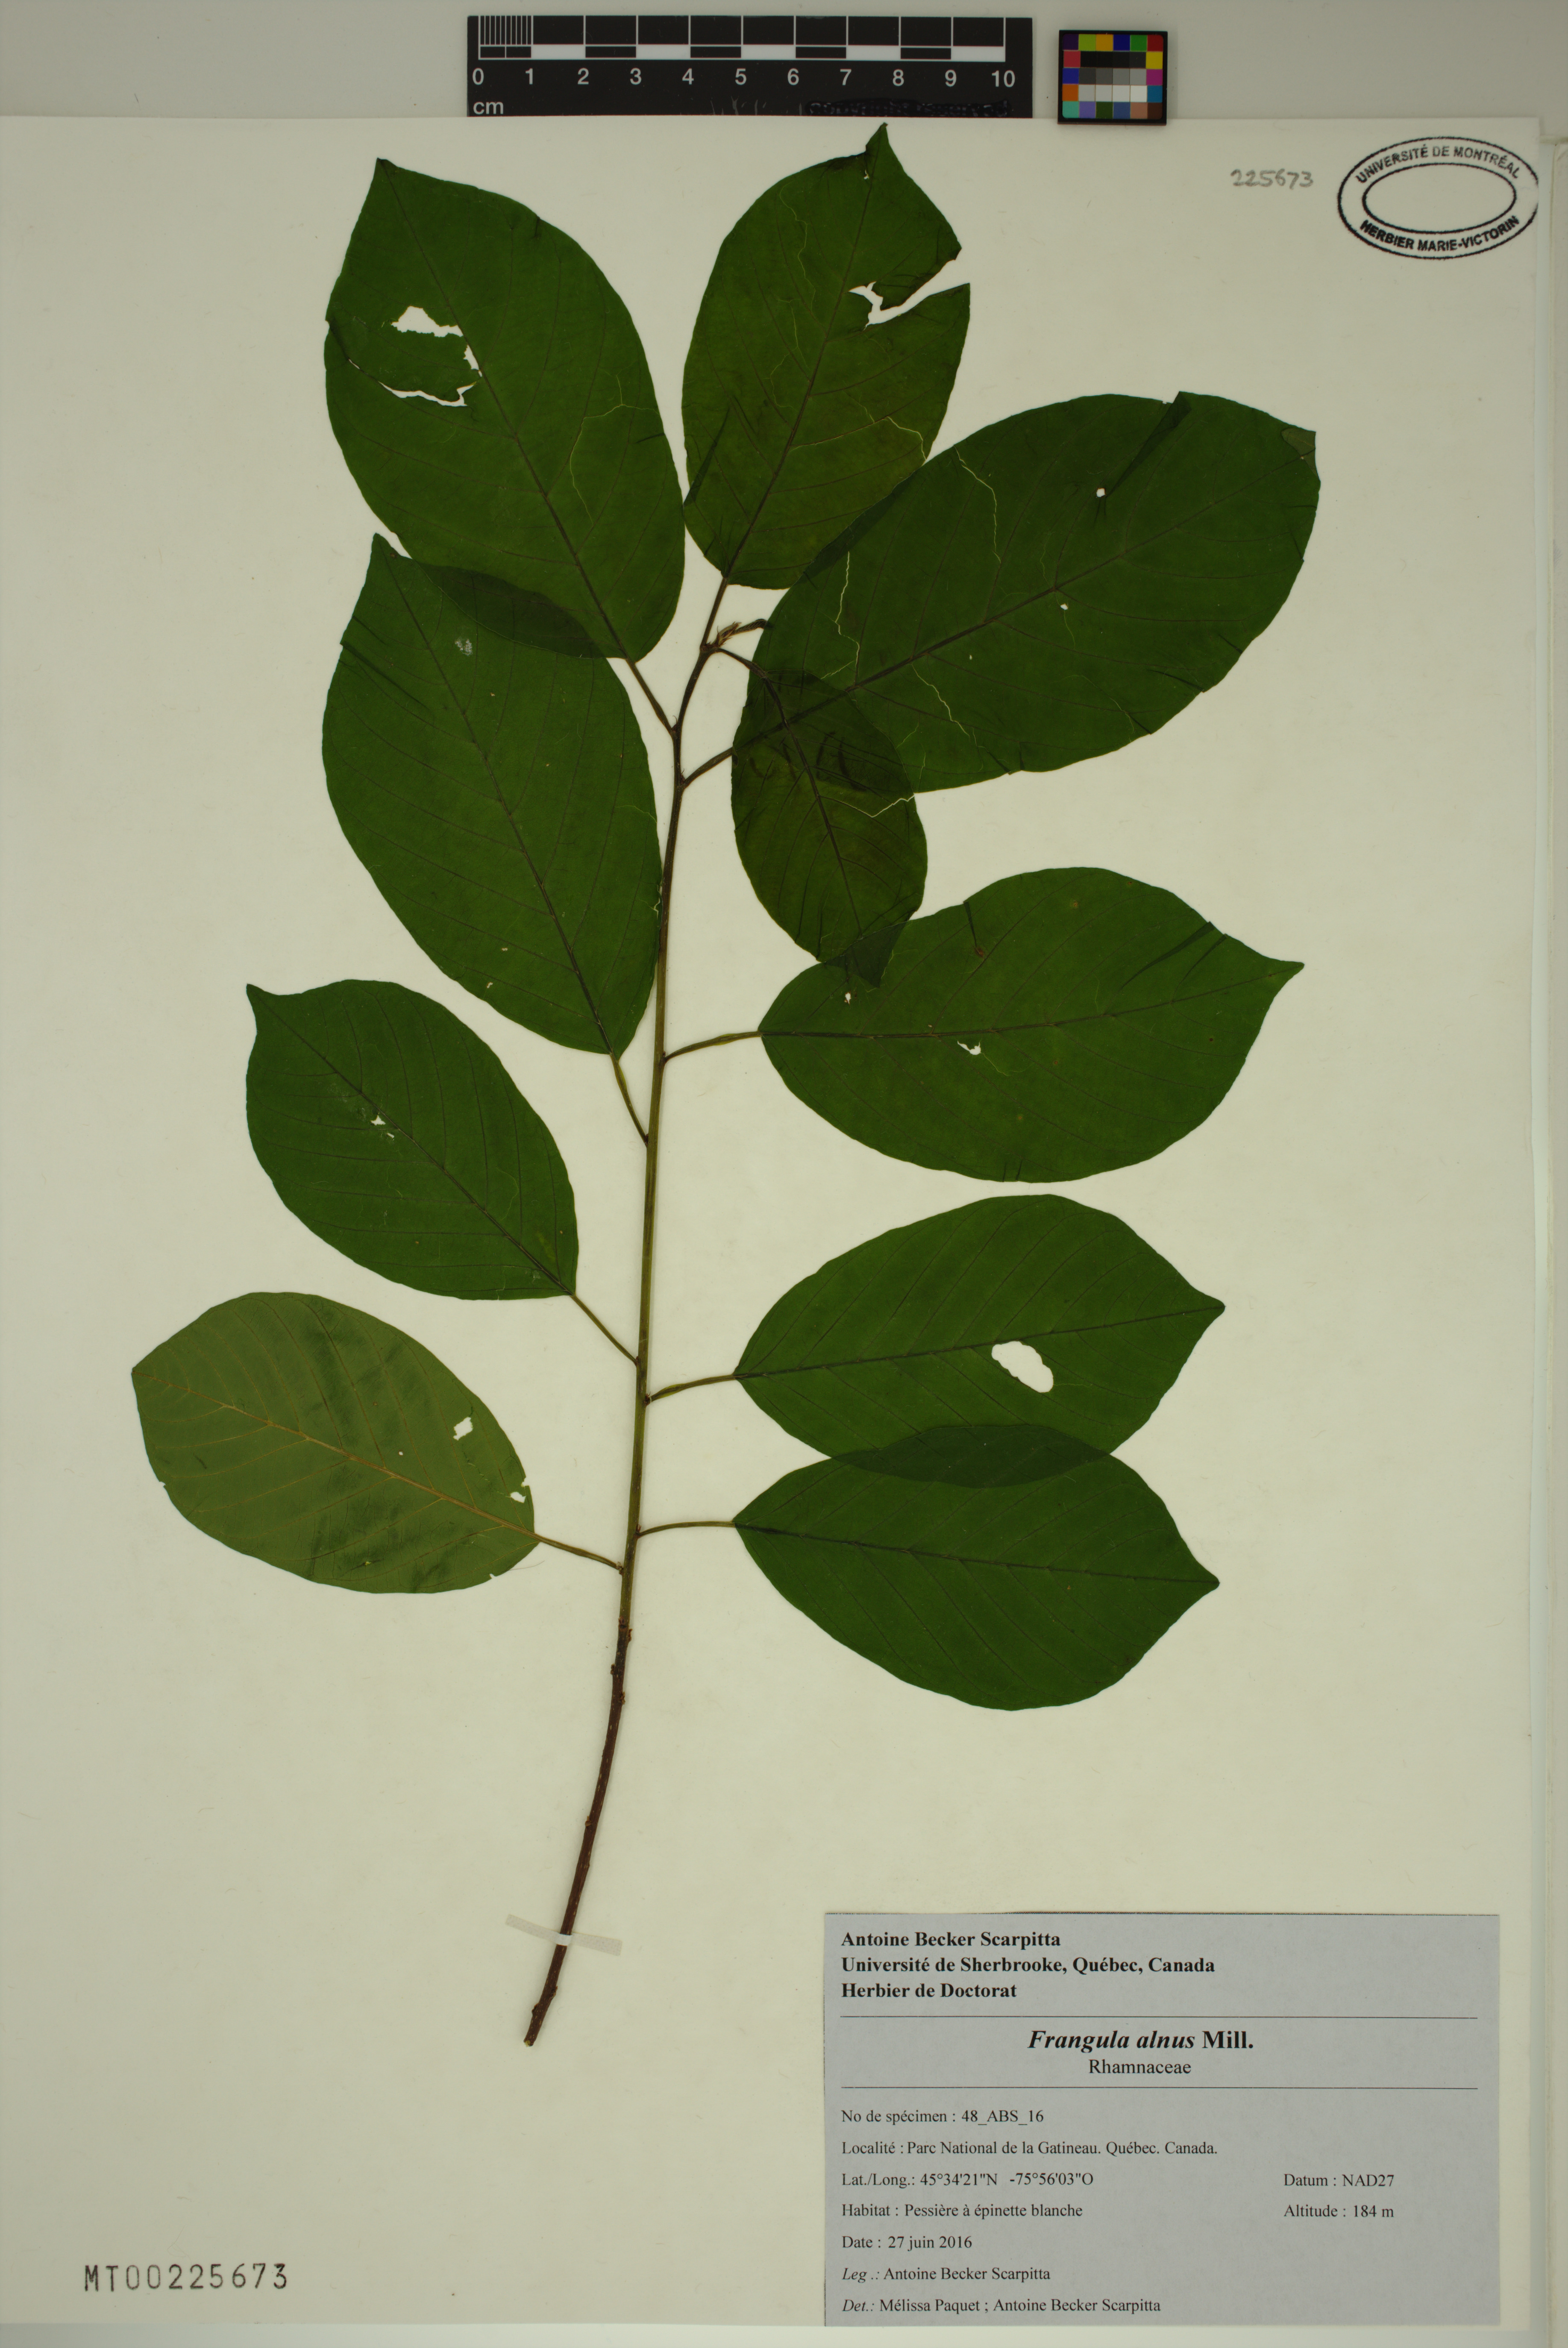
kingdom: Plantae
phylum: Tracheophyta
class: Magnoliopsida
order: Rosales
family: Rhamnaceae
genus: Frangula
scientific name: Frangula alnus
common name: Alder buckthorn
